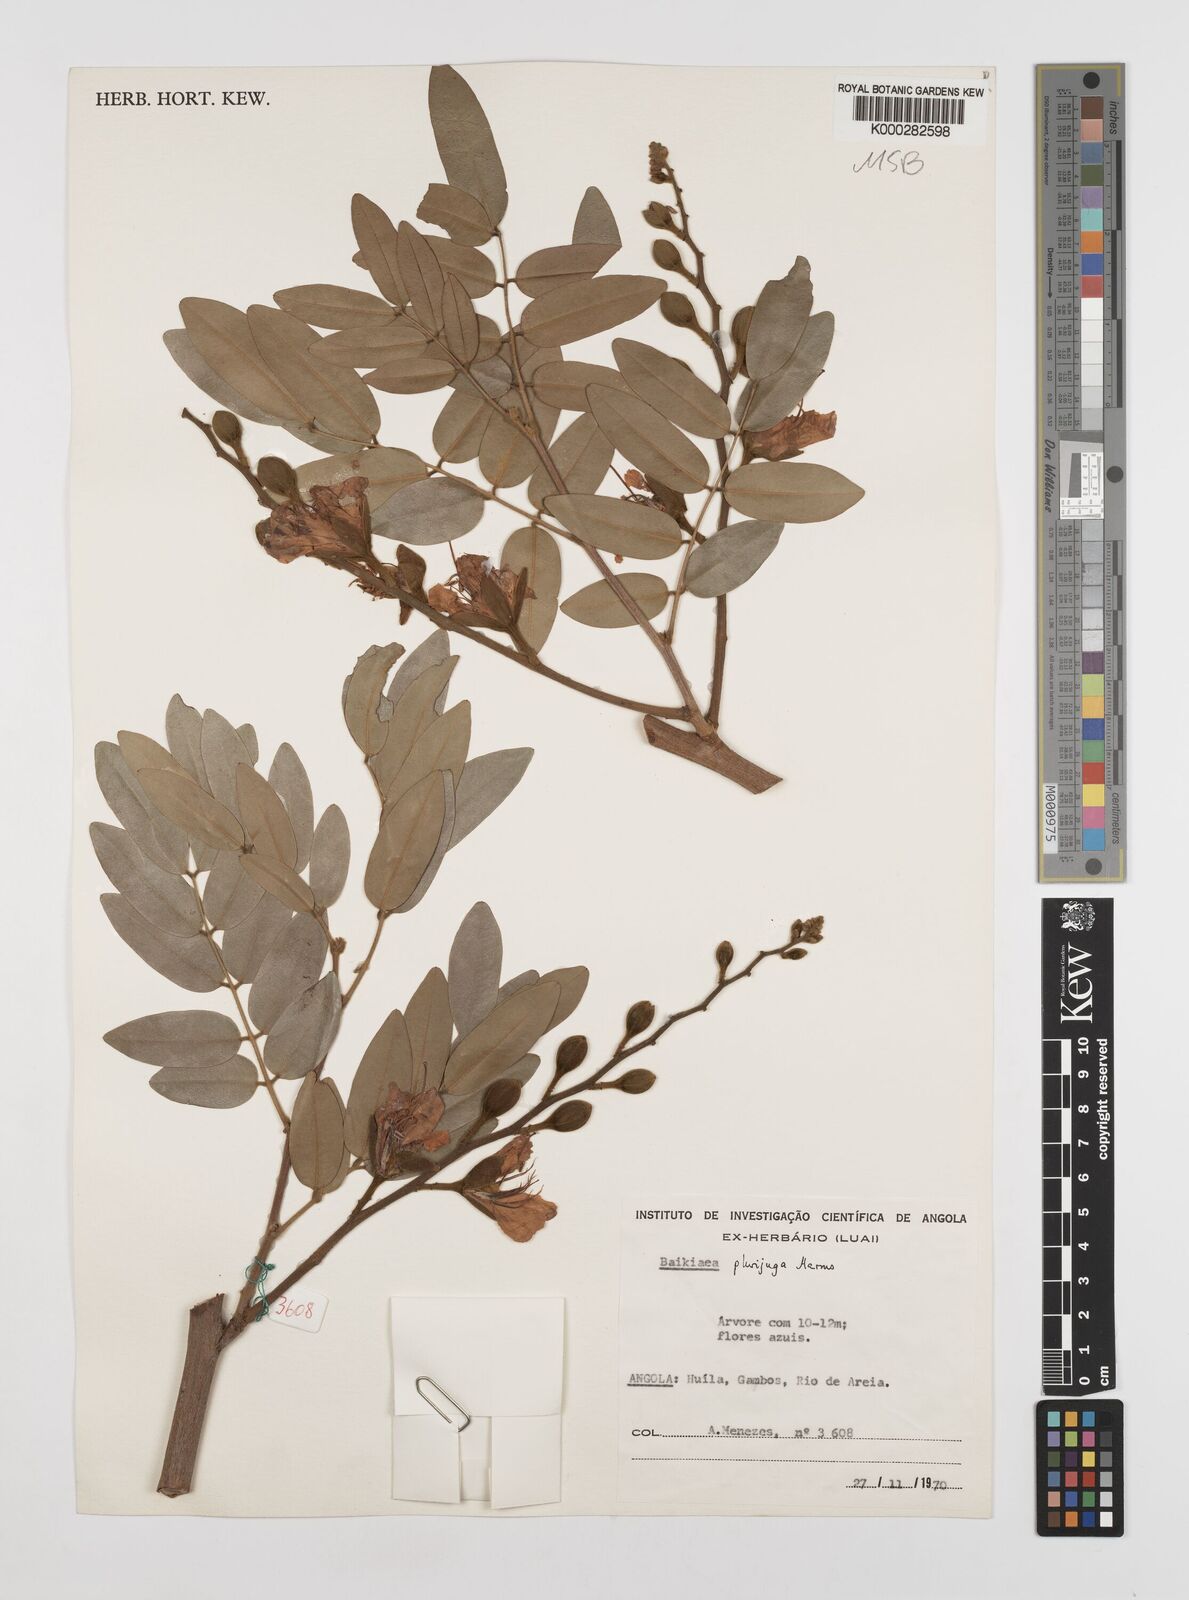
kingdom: Plantae
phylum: Tracheophyta
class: Magnoliopsida
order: Fabales
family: Fabaceae
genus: Baikiaea
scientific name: Baikiaea plurijuga
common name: Rhodesian-teak
